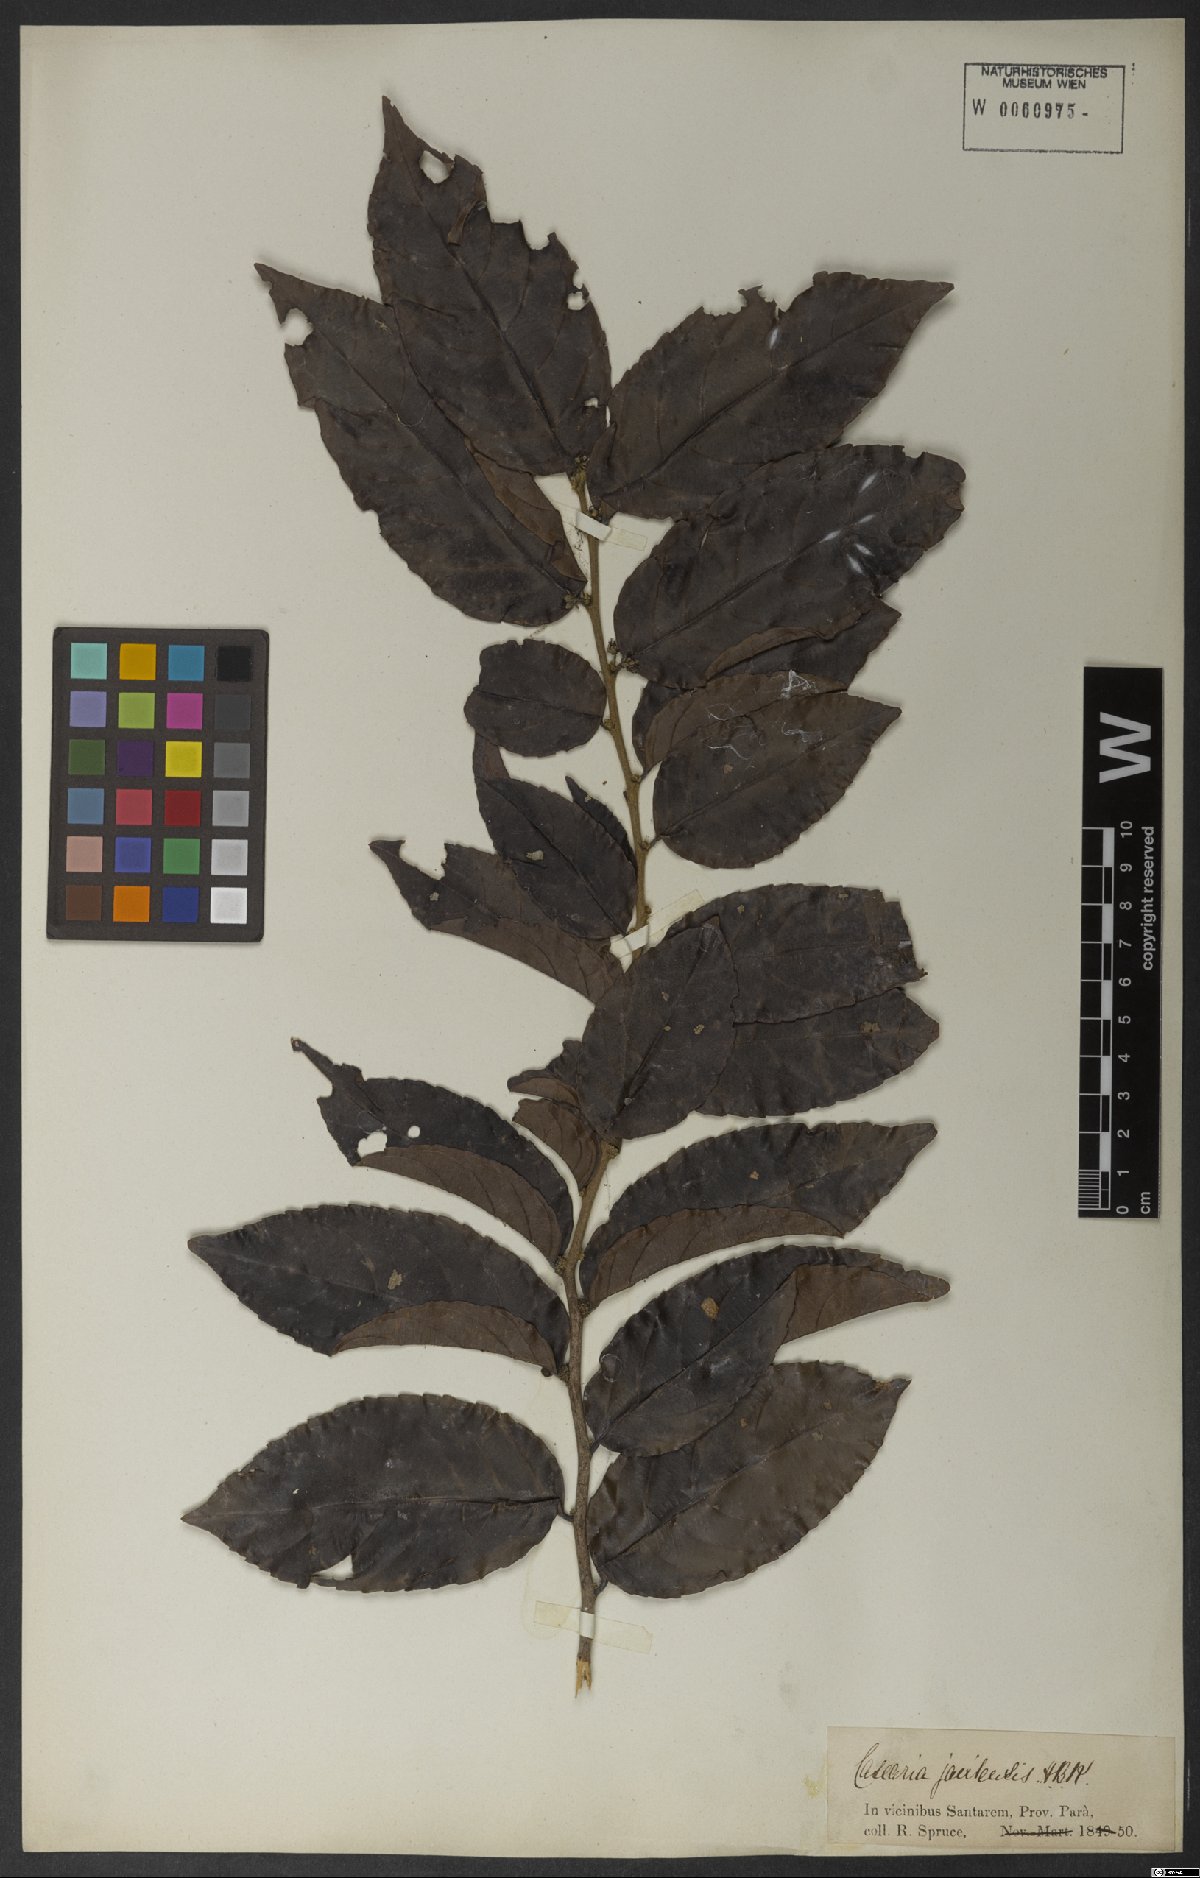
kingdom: Plantae
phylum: Tracheophyta
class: Magnoliopsida
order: Malpighiales
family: Salicaceae
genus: Piparea
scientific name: Piparea multiflora
